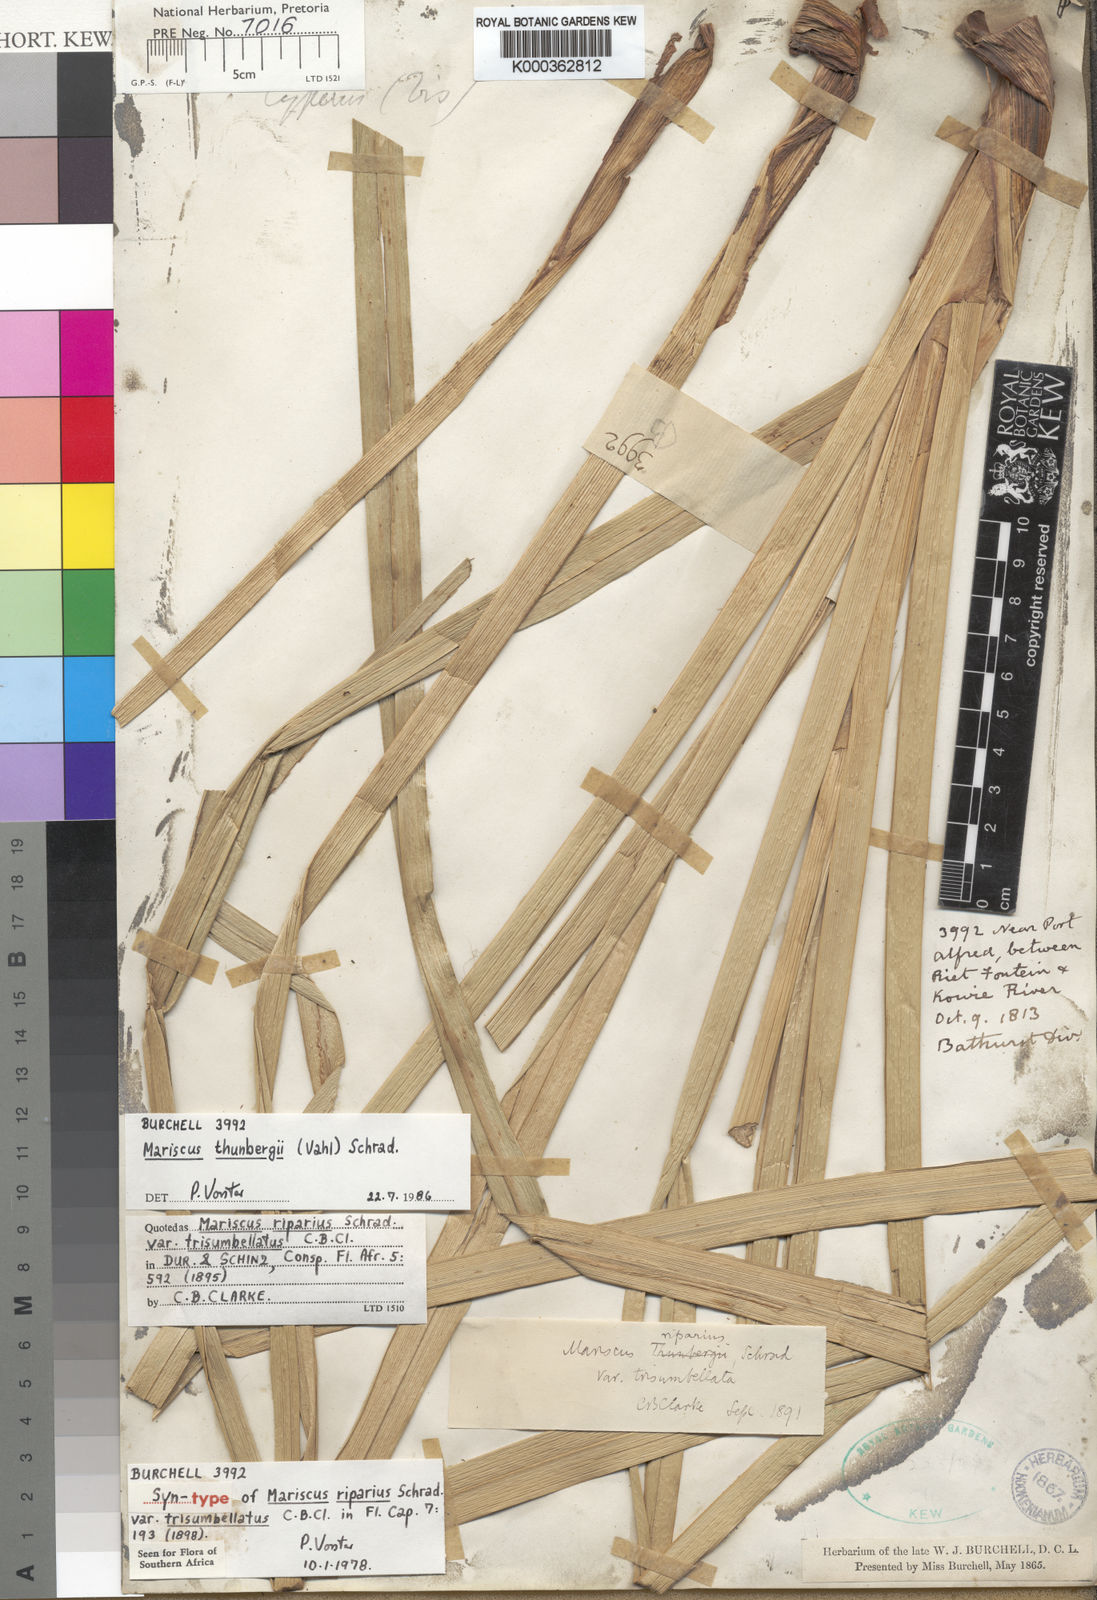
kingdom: Plantae
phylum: Tracheophyta
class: Liliopsida
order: Poales
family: Cyperaceae
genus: Cyperus
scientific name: Cyperus thunbergii
